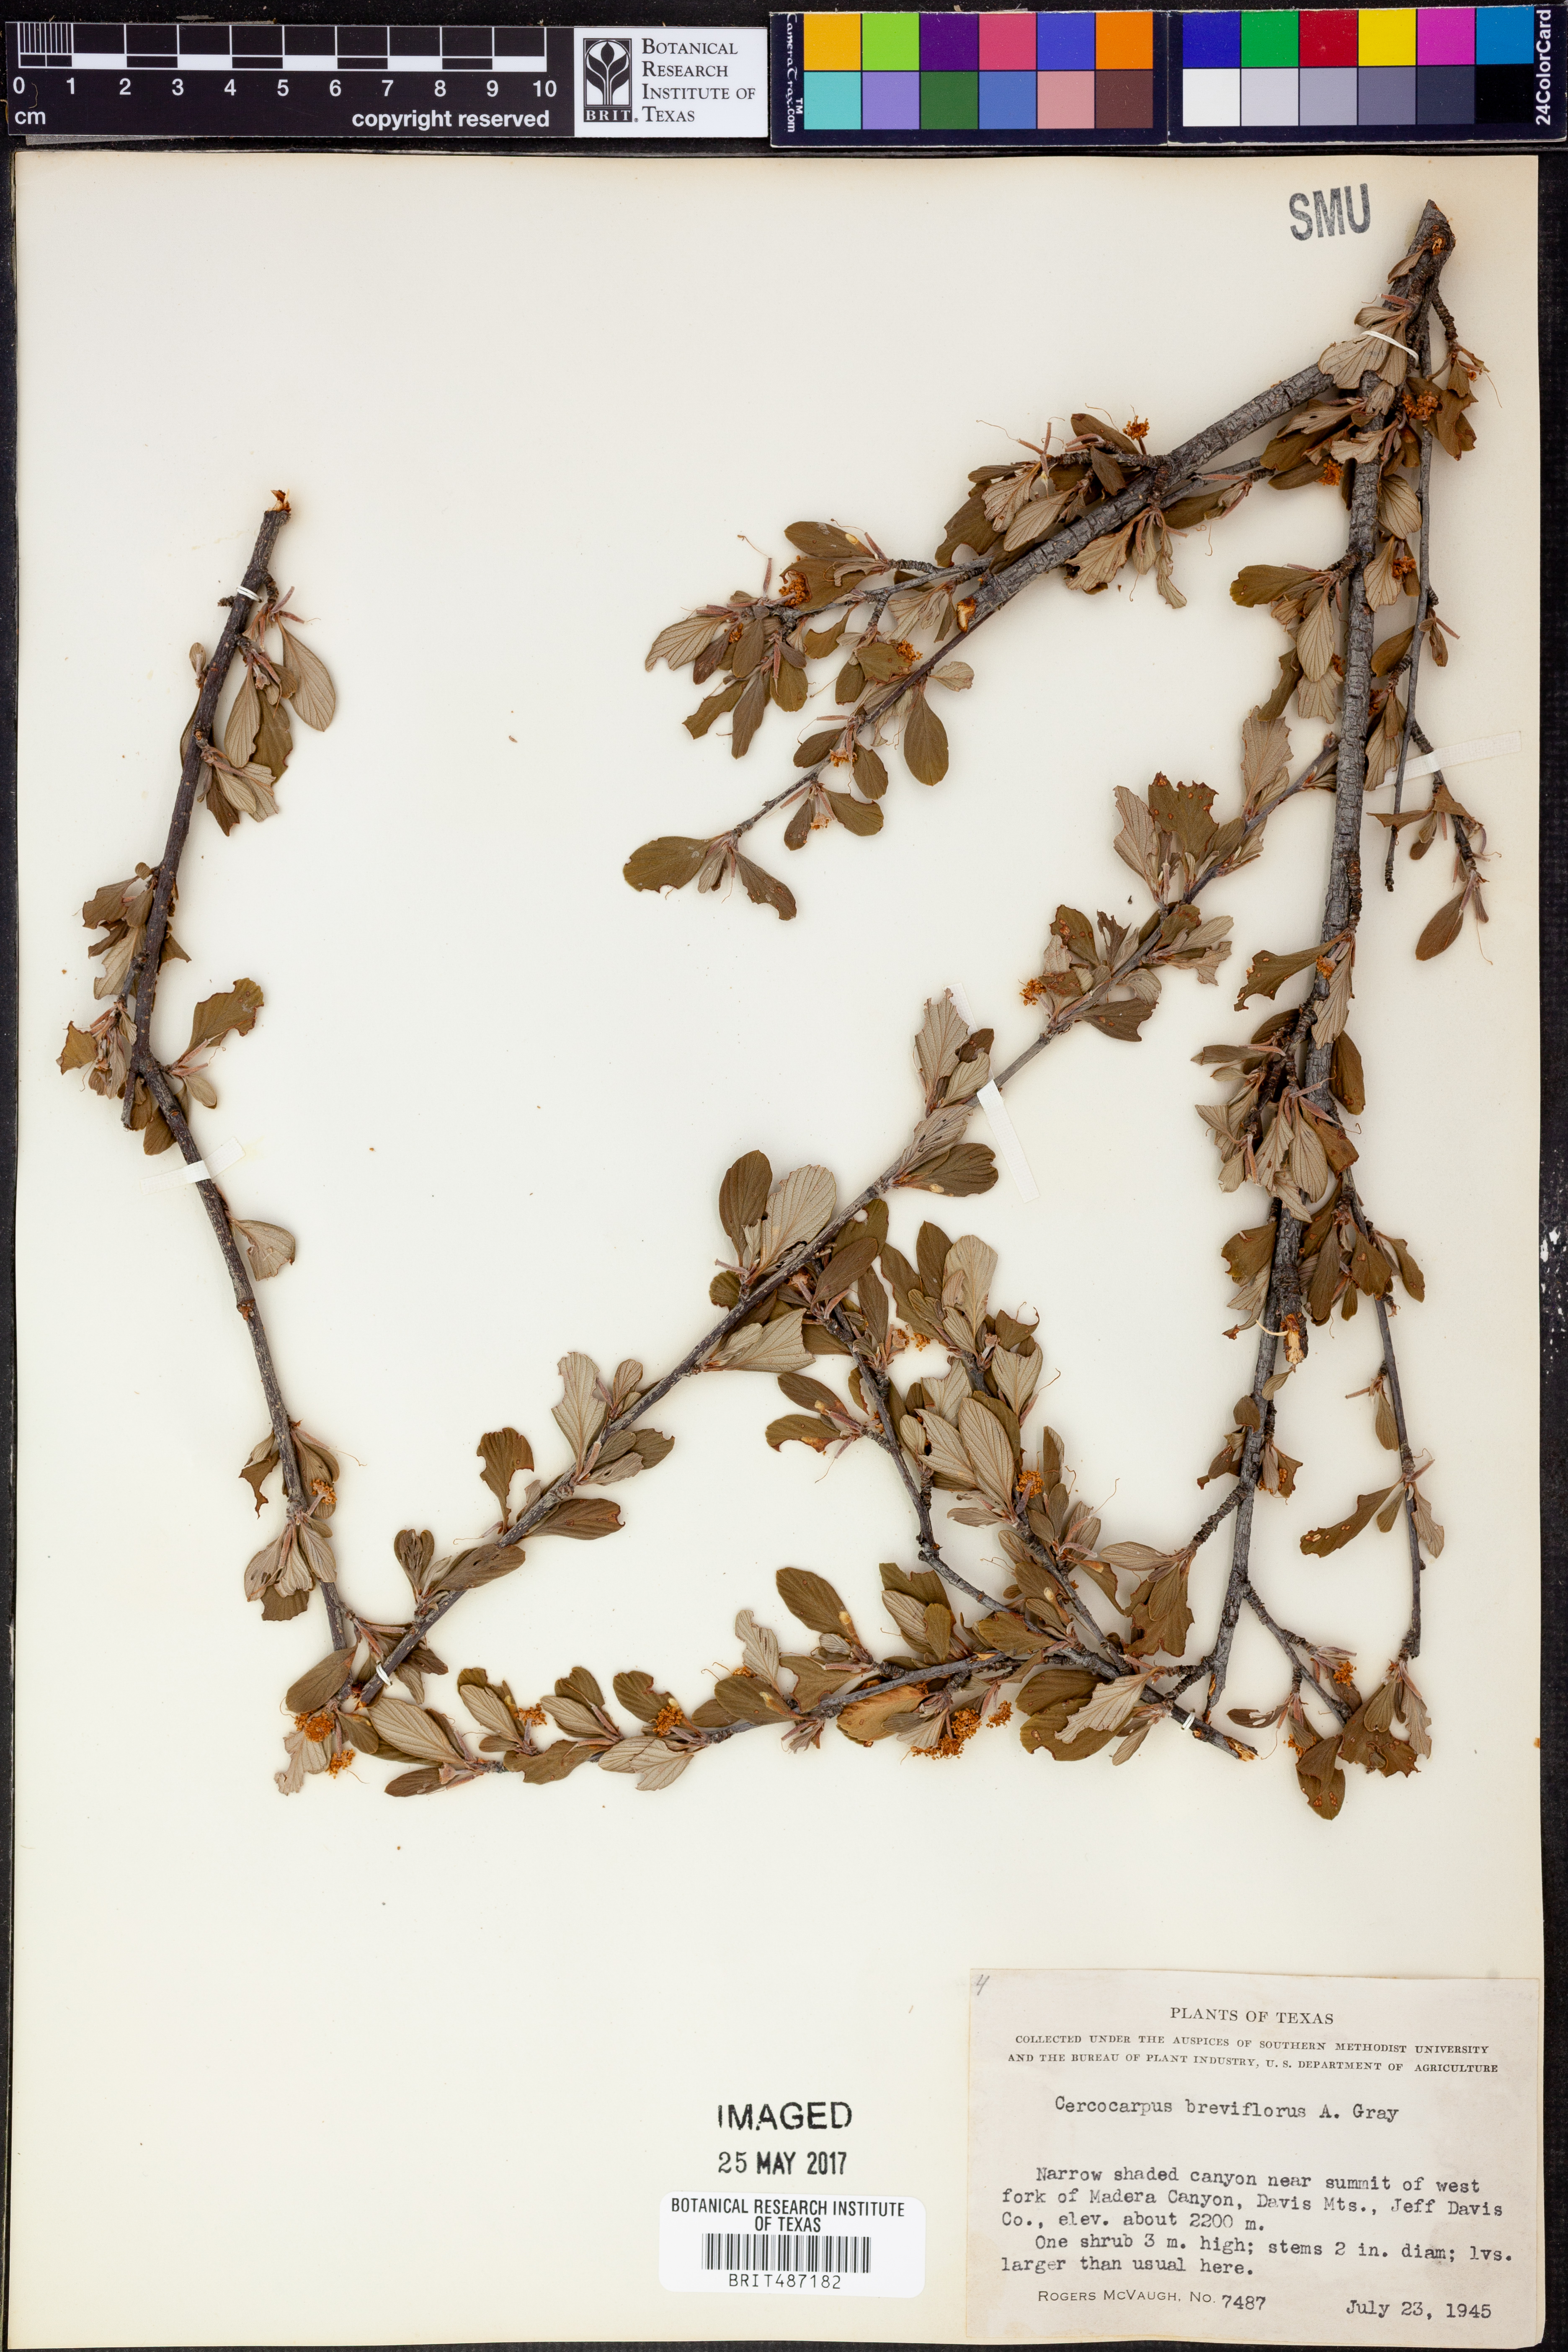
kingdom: Plantae
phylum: Tracheophyta
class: Magnoliopsida
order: Rosales
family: Rosaceae
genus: Cercocarpus
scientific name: Cercocarpus breviflorus
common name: Wright's mountain-mahogany
